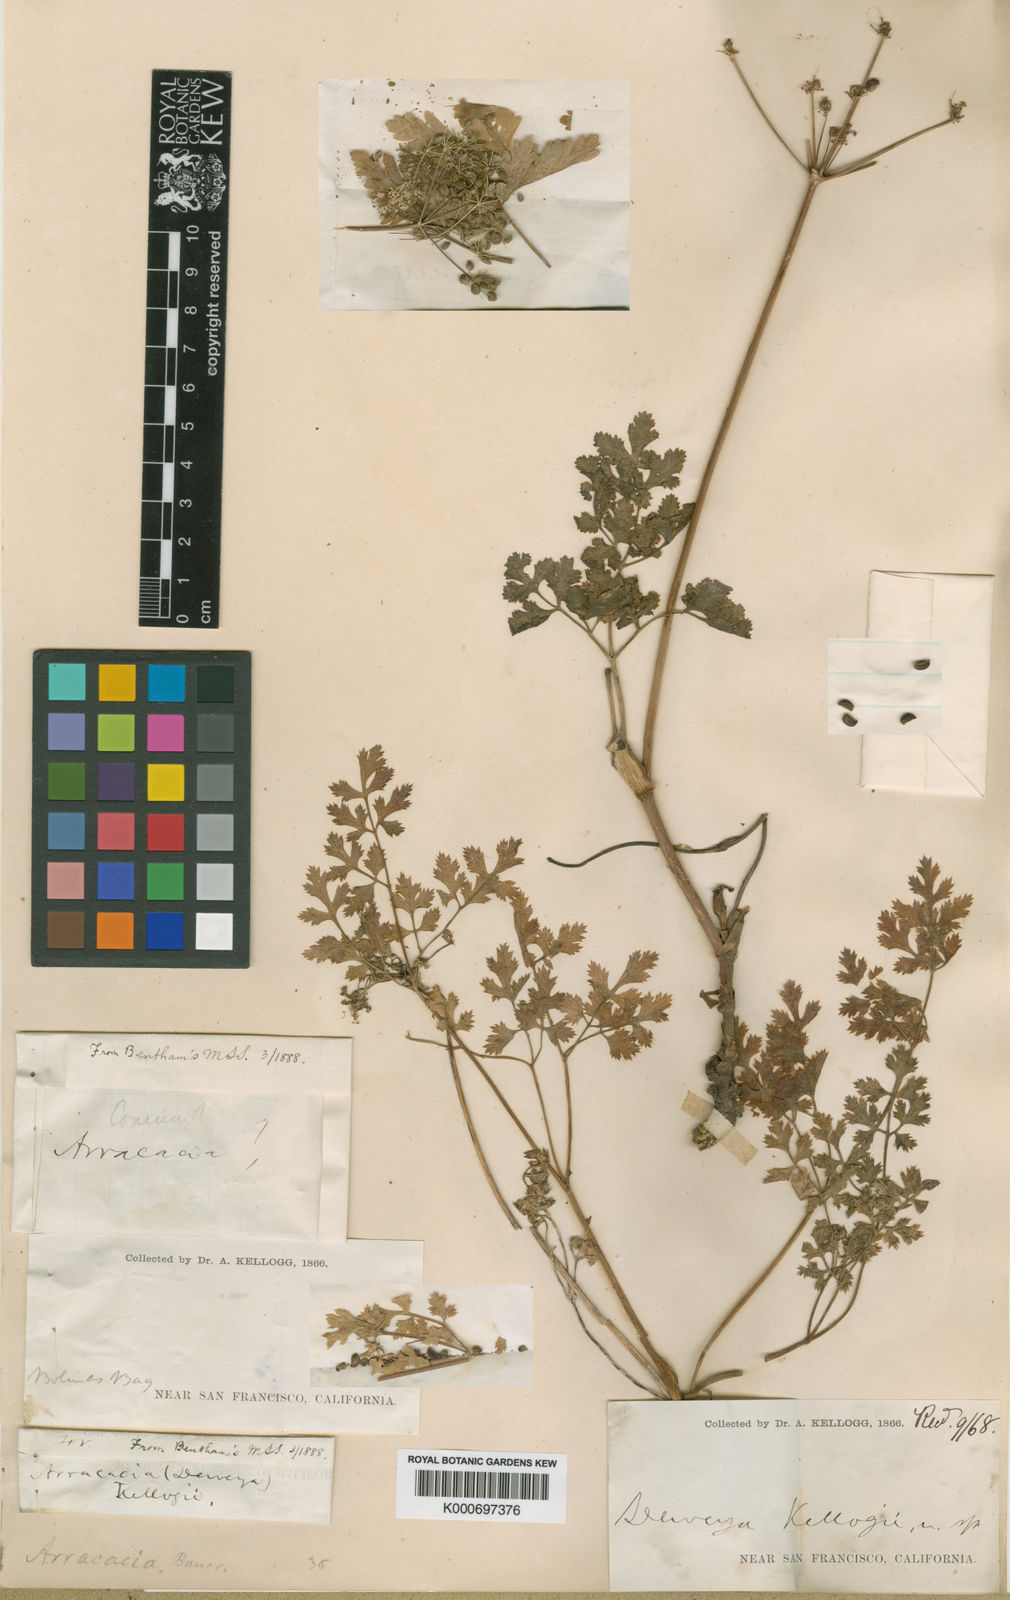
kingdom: Plantae
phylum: Tracheophyta
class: Magnoliopsida
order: Apiales
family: Apiaceae
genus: Tauschia
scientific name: Tauschia kelloggii
